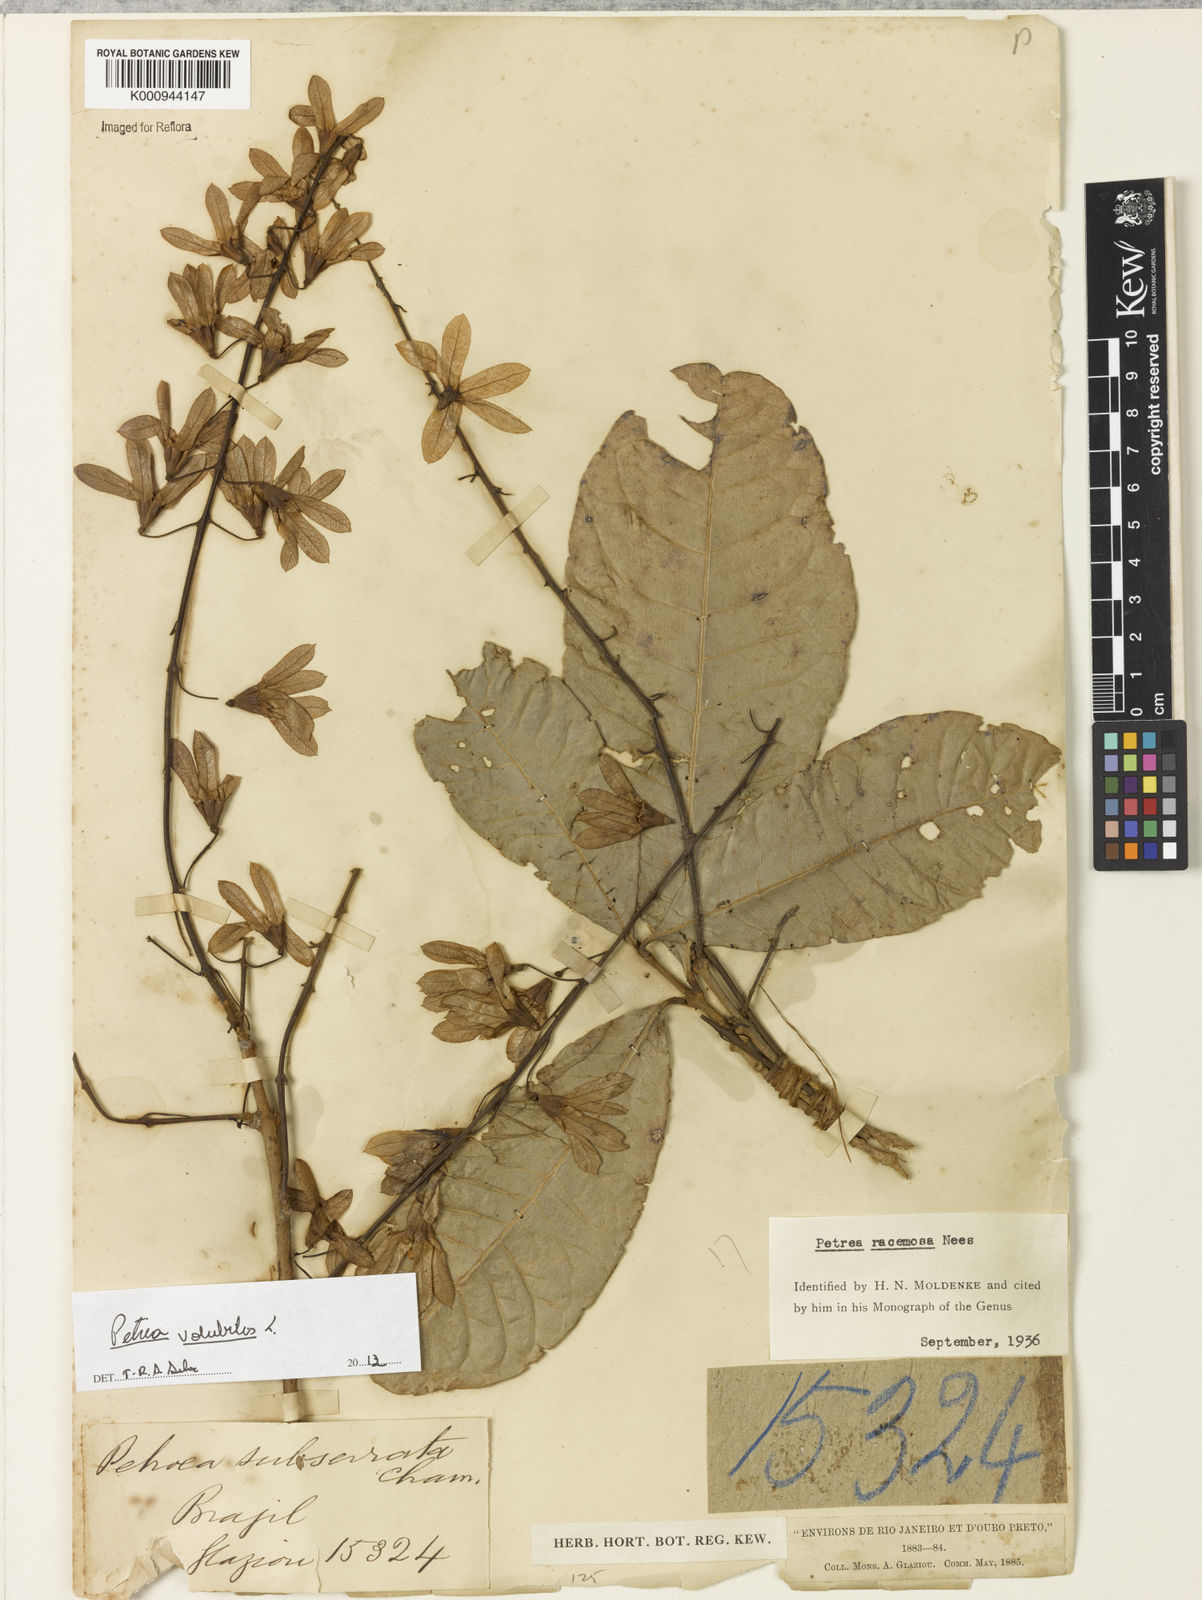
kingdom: Plantae
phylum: Tracheophyta
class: Magnoliopsida
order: Lamiales
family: Verbenaceae
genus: Petrea
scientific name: Petrea volubilis
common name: Queen's-wreath
